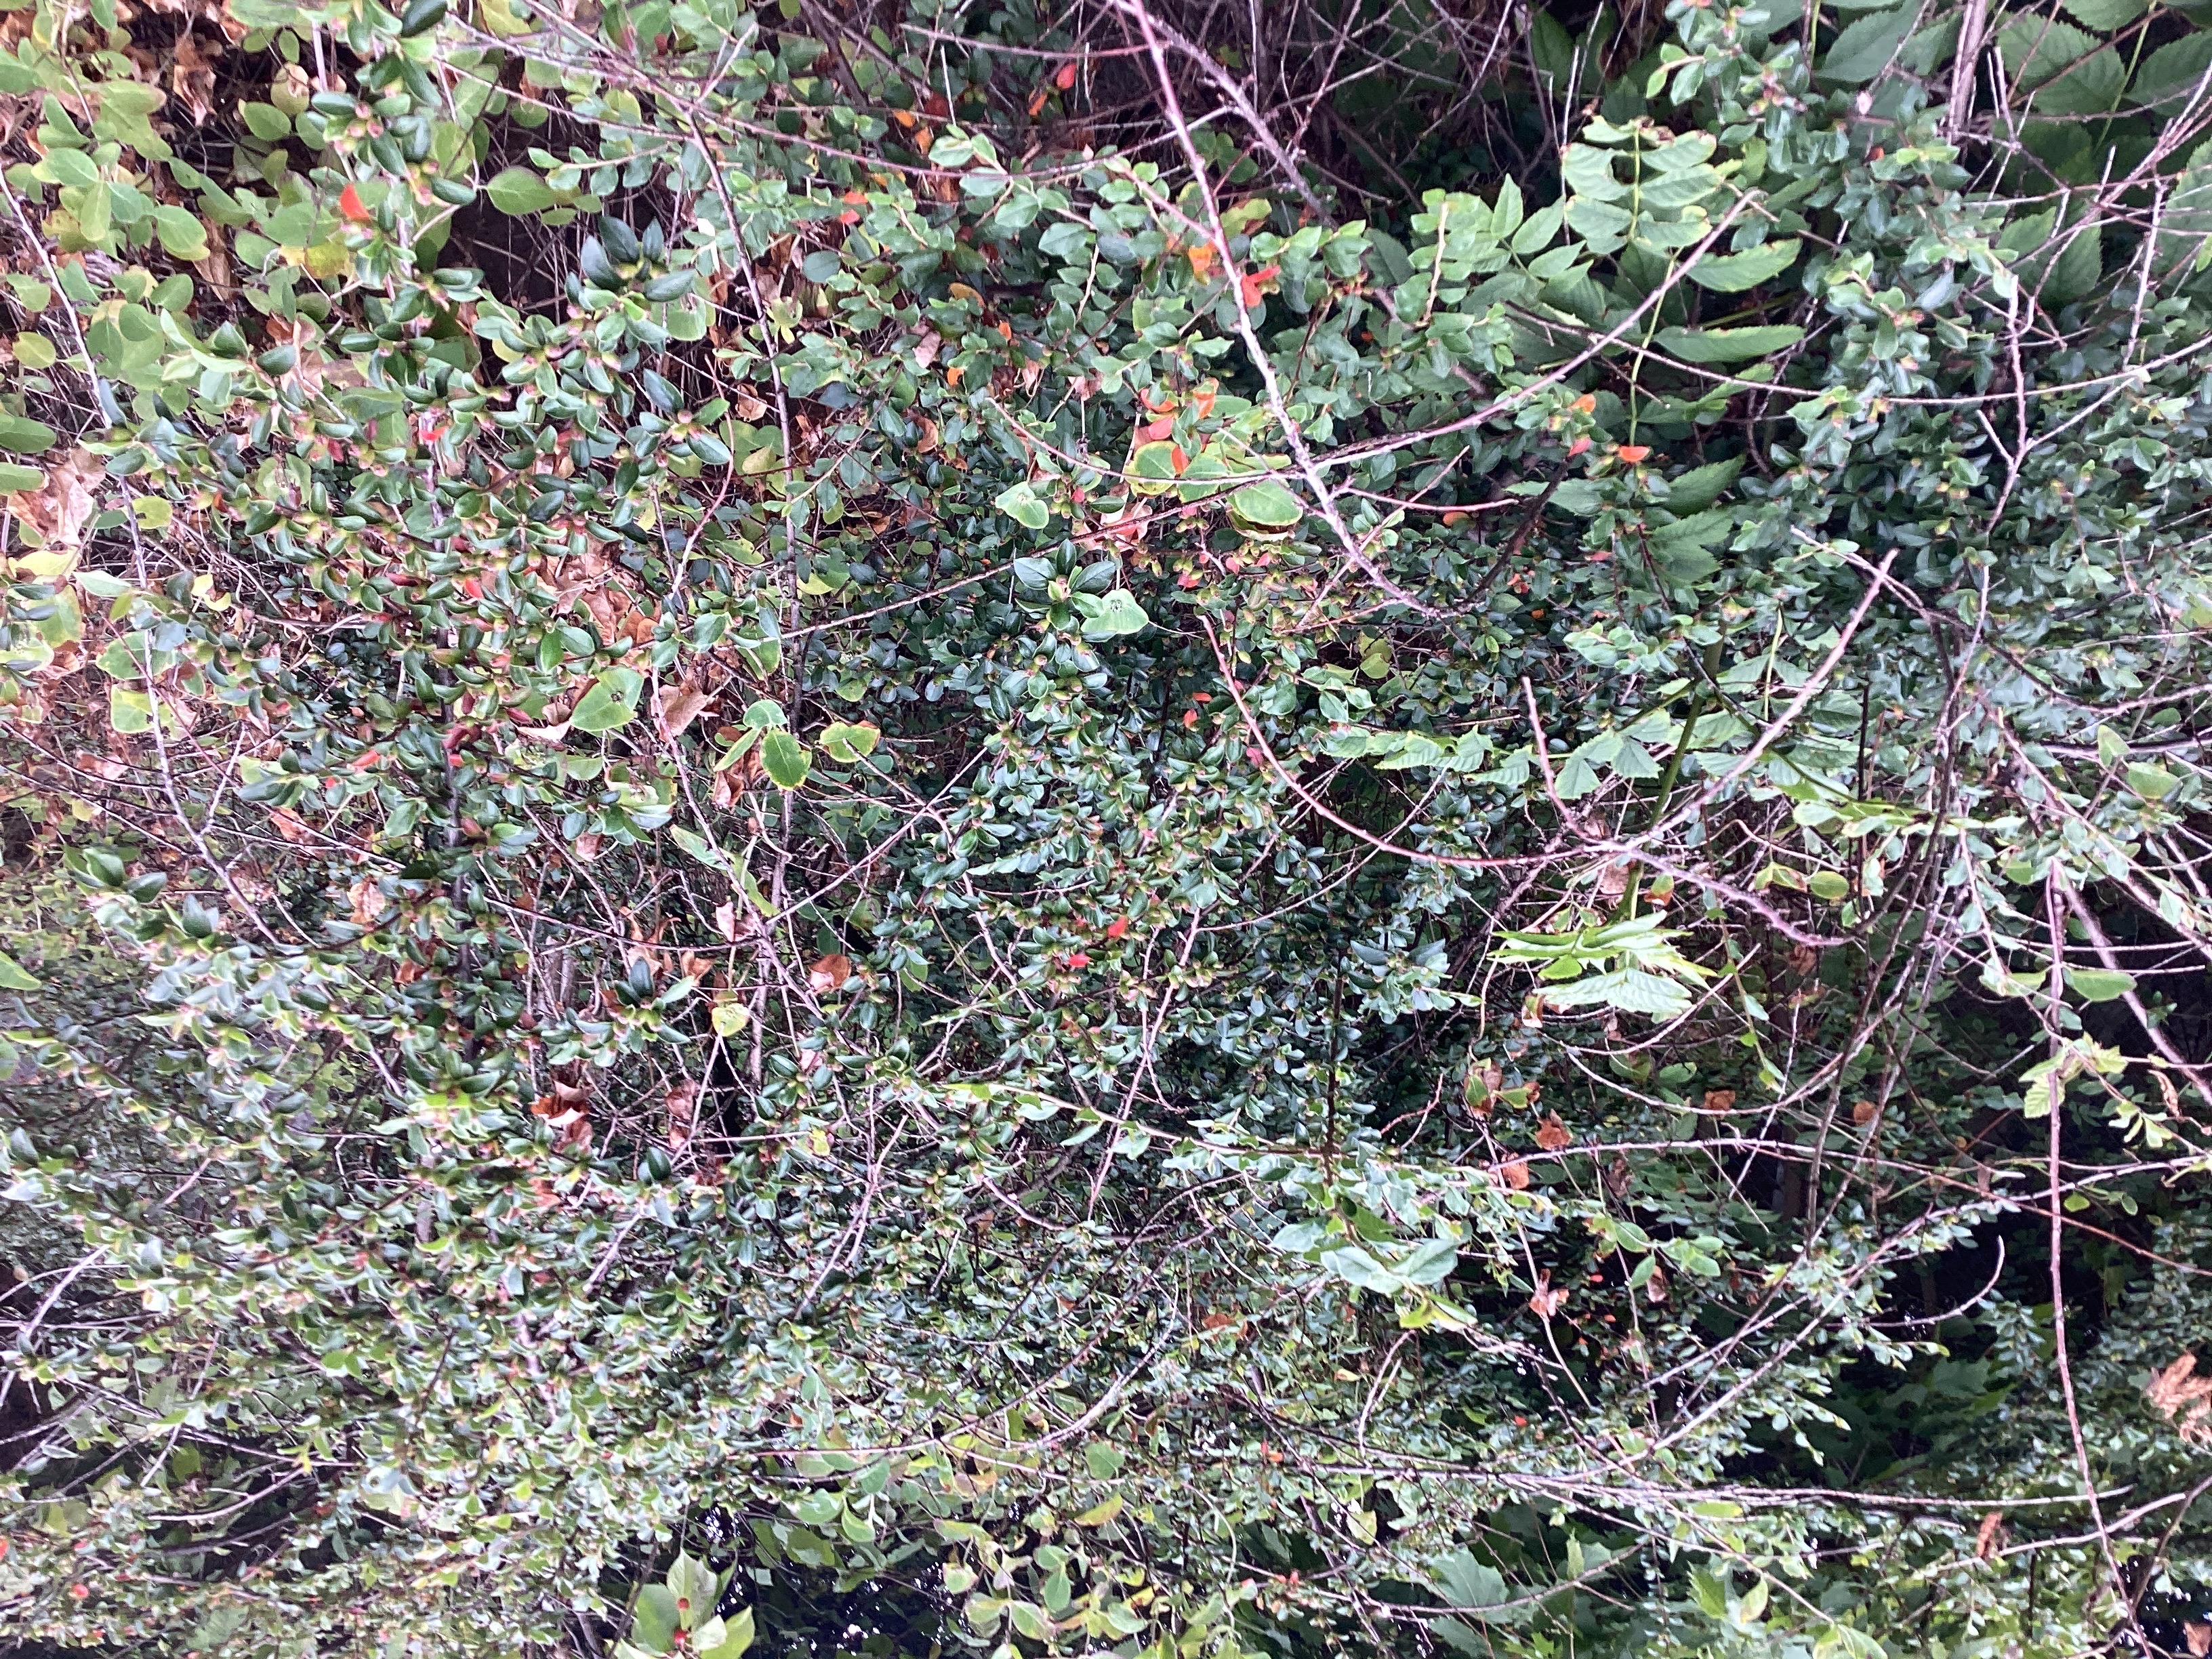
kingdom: Plantae
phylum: Tracheophyta
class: Magnoliopsida
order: Rosales
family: Rosaceae
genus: Cotoneaster
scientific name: Cotoneaster divaricatus
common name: sprikemispel
